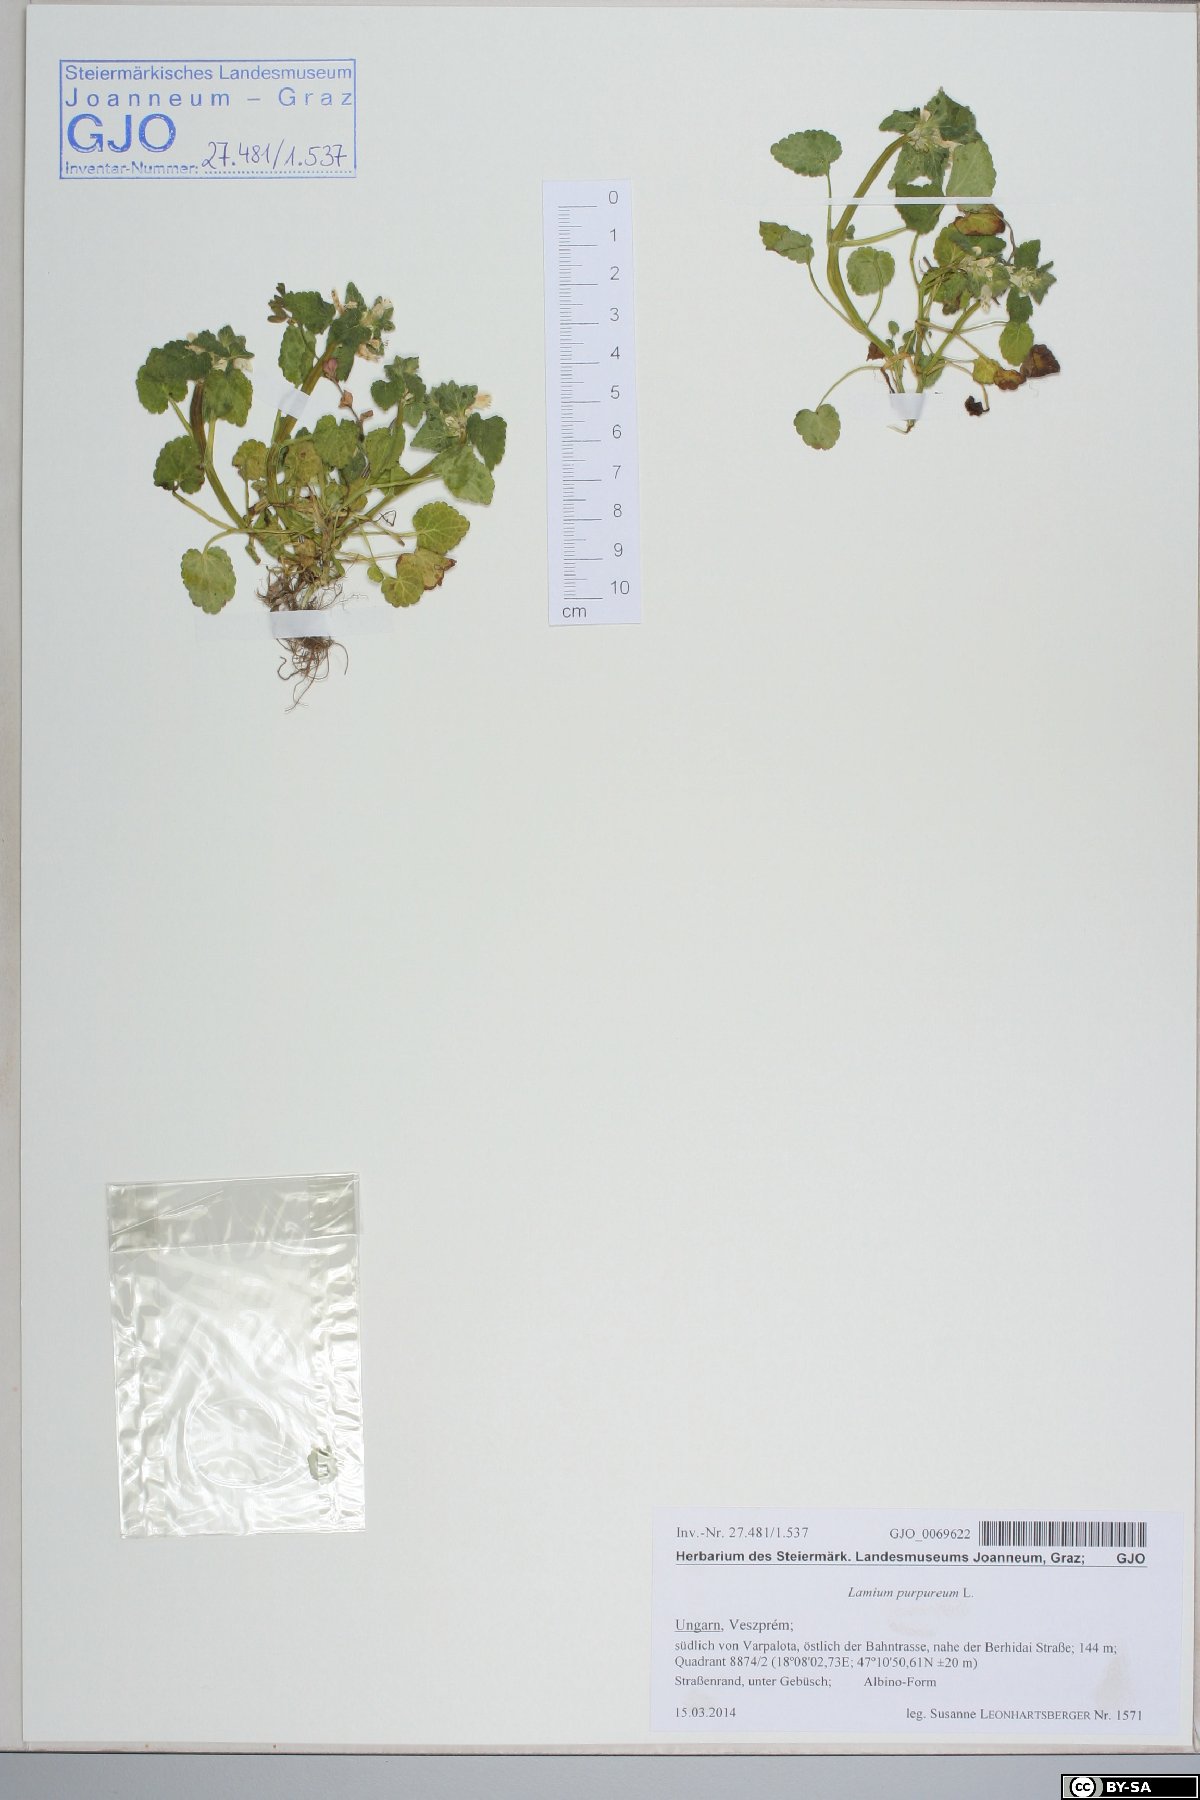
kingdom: Plantae
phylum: Tracheophyta
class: Magnoliopsida
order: Lamiales
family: Lamiaceae
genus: Lamium
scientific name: Lamium purpureum
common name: Red dead-nettle
